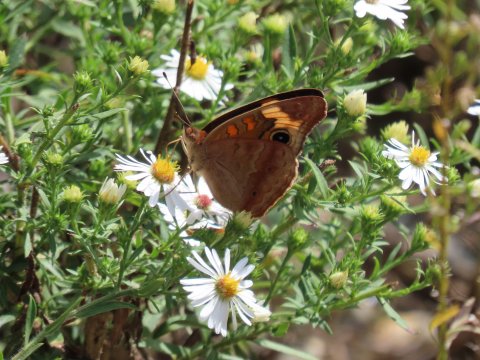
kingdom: Animalia
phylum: Arthropoda
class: Insecta
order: Lepidoptera
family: Nymphalidae
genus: Junonia
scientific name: Junonia coenia
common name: Common Buckeye
